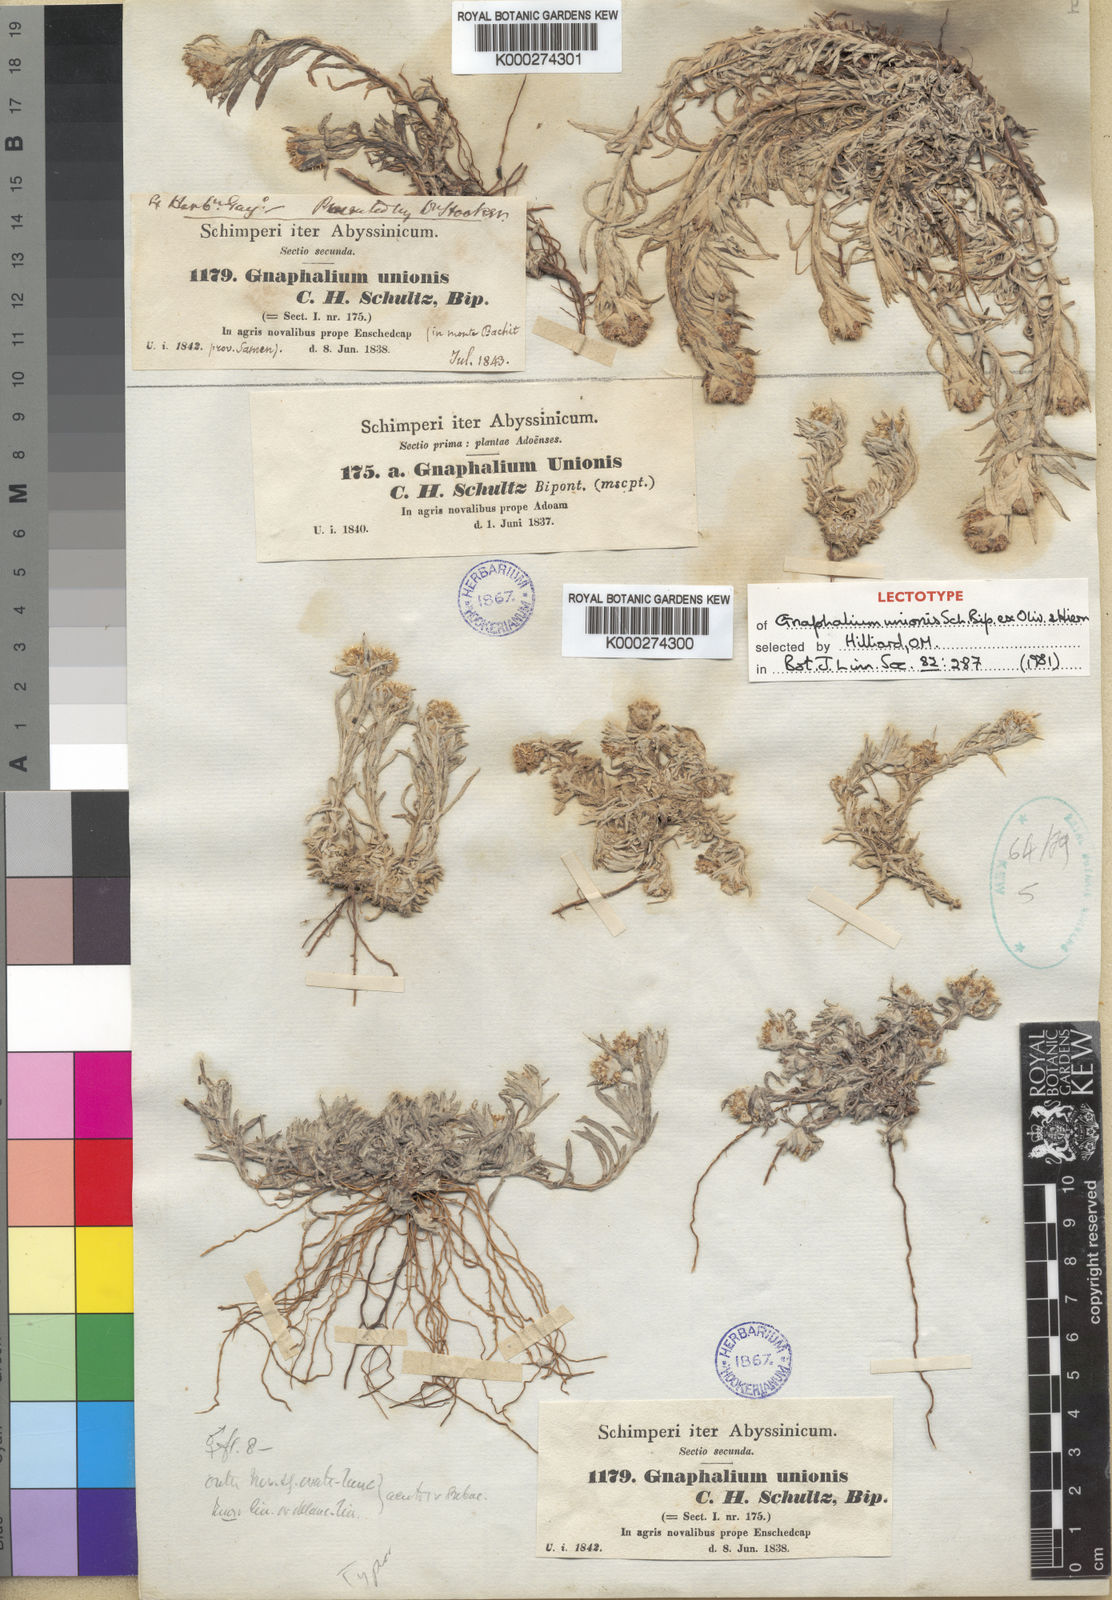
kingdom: Plantae
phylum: Tracheophyta
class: Magnoliopsida
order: Asterales
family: Asteraceae
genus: Gnaphalium
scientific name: Gnaphalium
